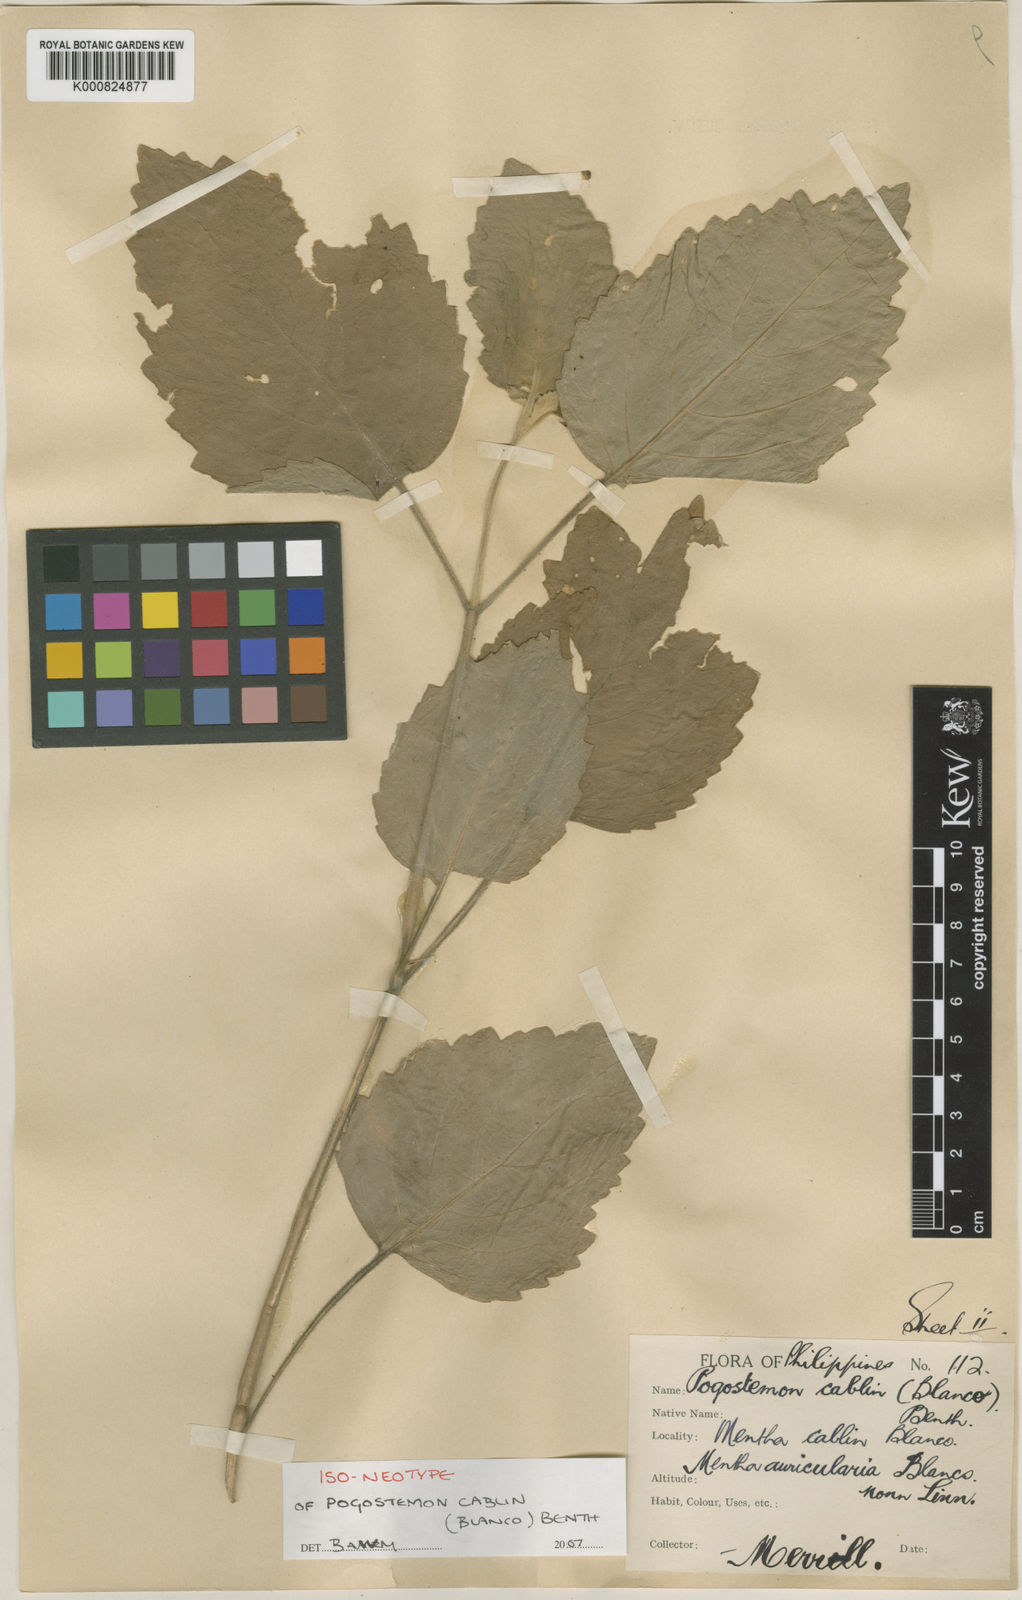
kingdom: Plantae
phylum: Tracheophyta
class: Magnoliopsida
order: Lamiales
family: Lamiaceae
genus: Pogostemon
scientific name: Pogostemon cablin
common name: Patchouli-plant
